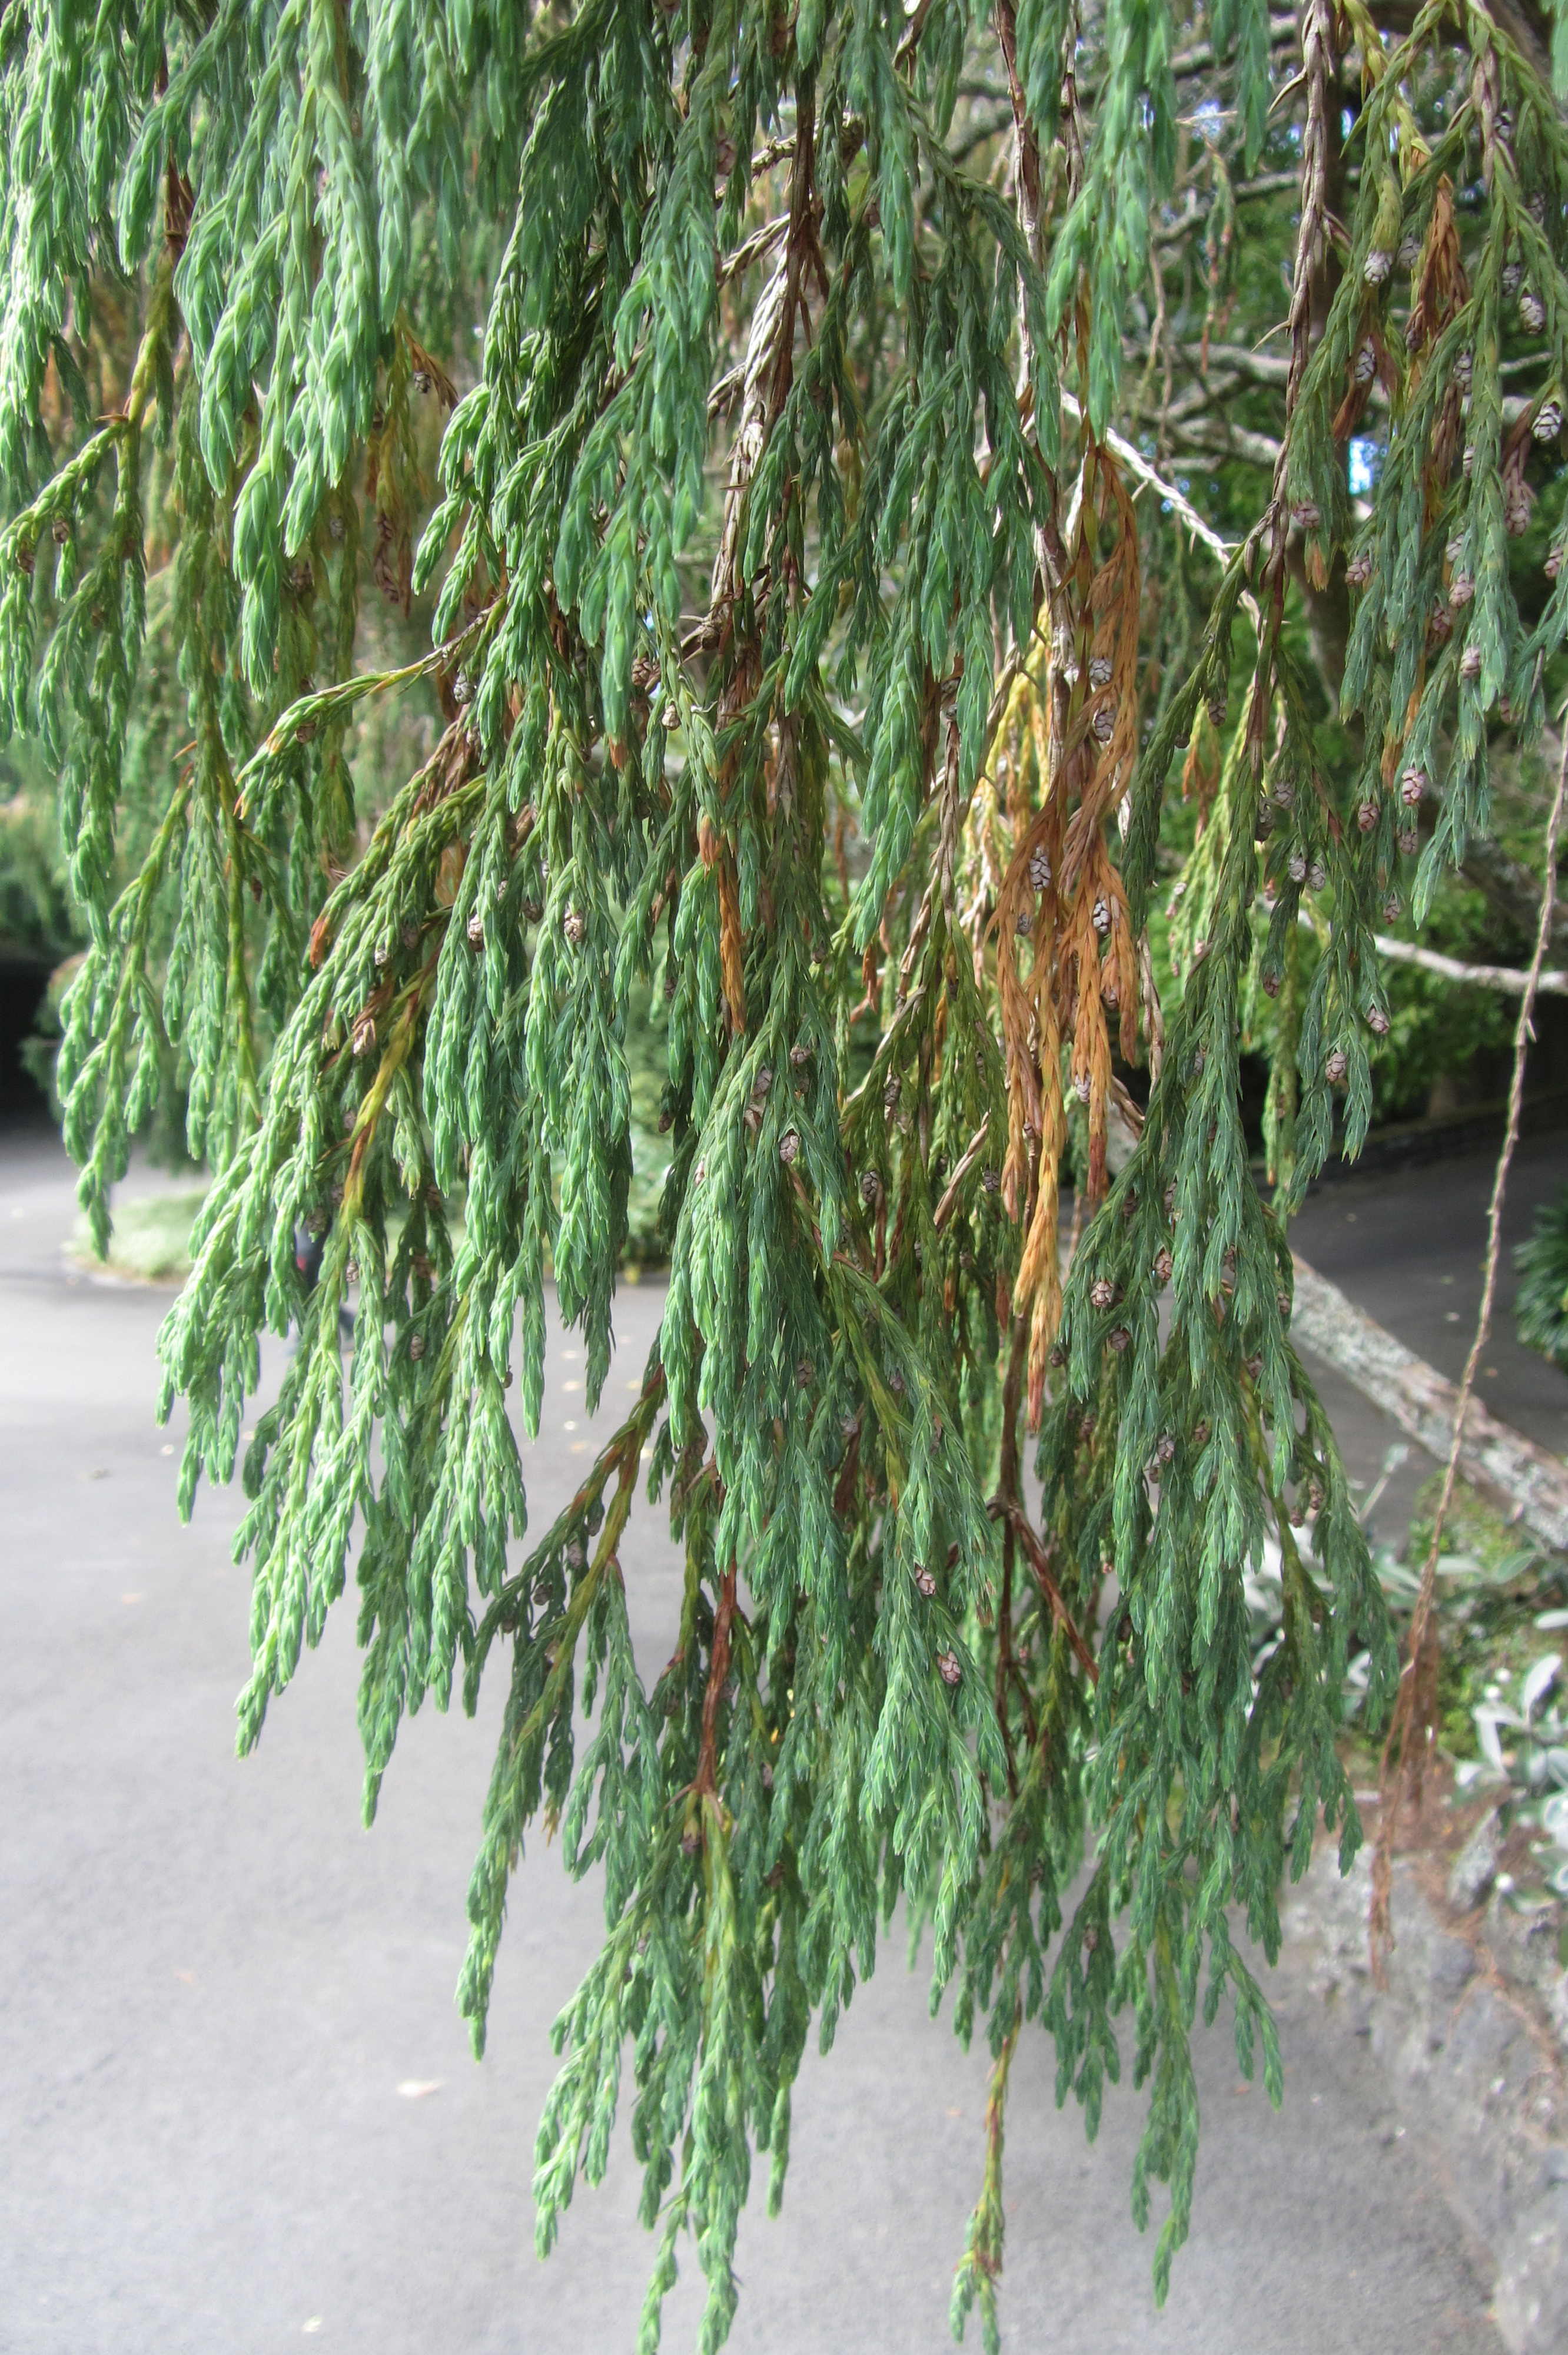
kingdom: Plantae
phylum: Tracheophyta
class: Pinopsida
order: Pinales
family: Cupressaceae
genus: Juniperus
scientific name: Juniperus recurva
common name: Drooping juniper
